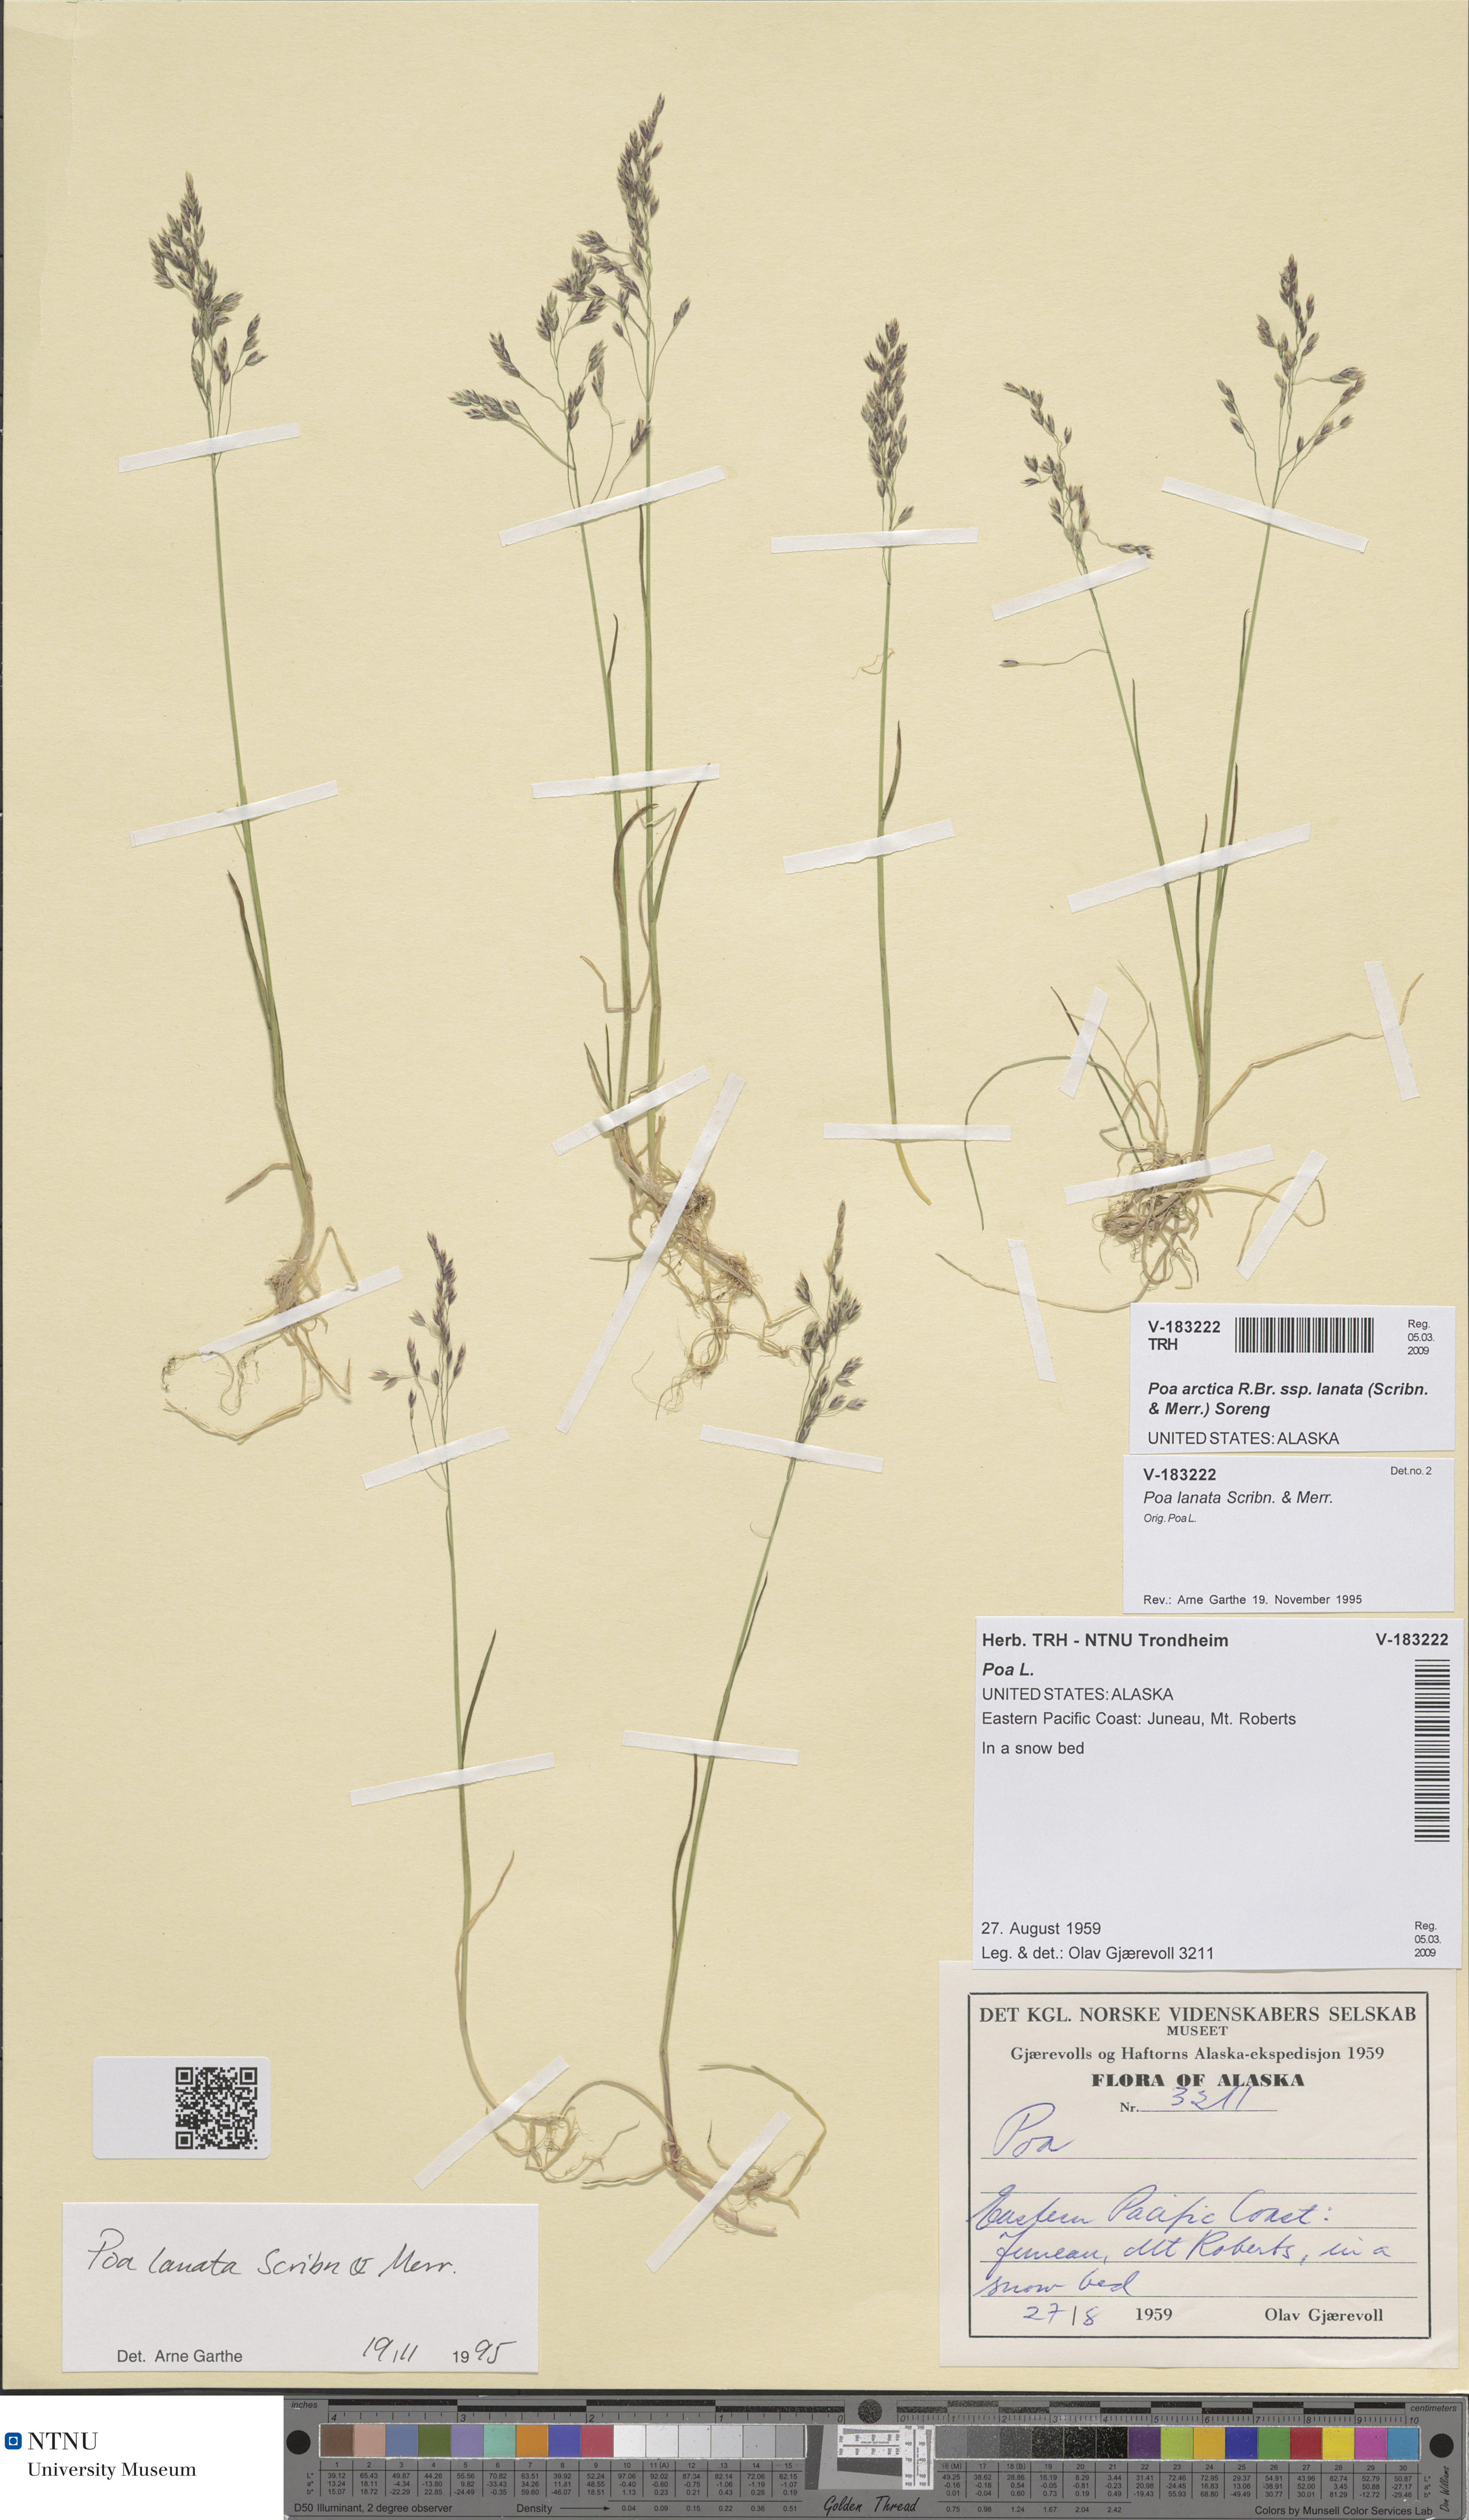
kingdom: Plantae
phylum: Tracheophyta
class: Liliopsida
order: Poales
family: Poaceae
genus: Poa
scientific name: Poa lanata
